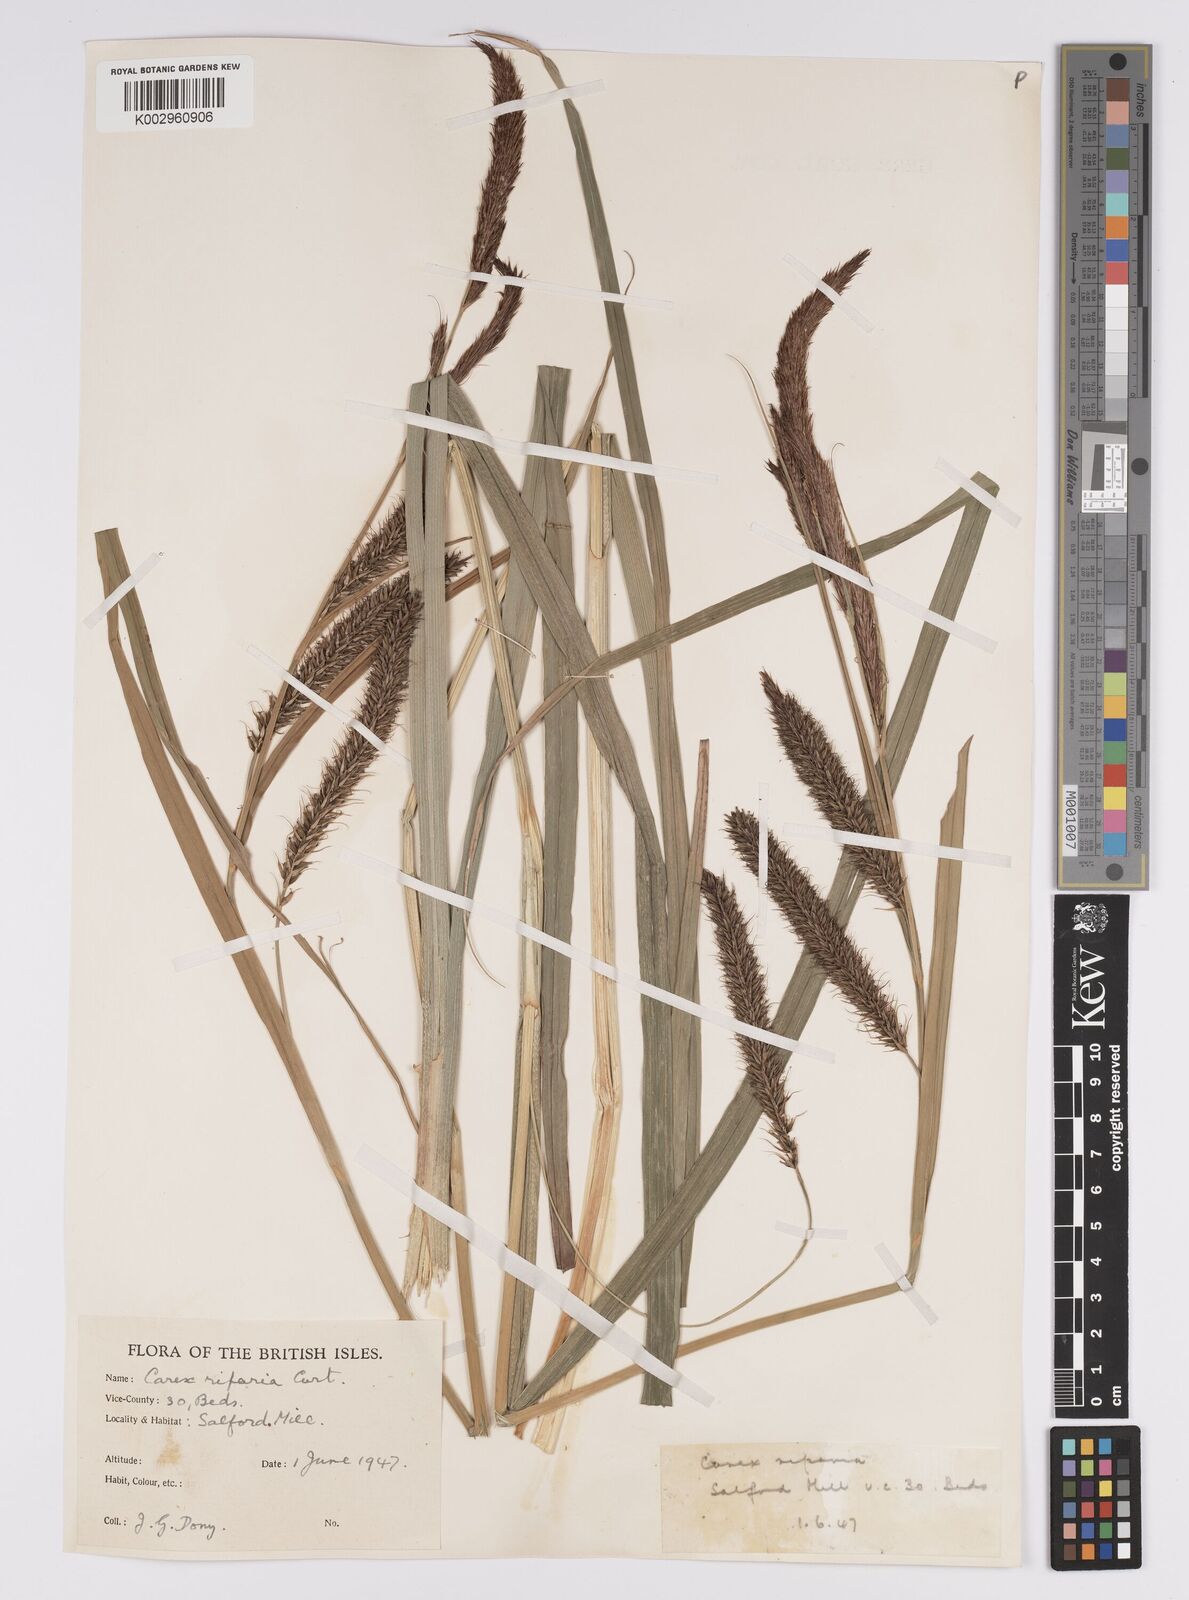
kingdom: Plantae
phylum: Tracheophyta
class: Liliopsida
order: Poales
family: Cyperaceae
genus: Carex
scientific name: Carex riparia
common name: Greater pond-sedge
